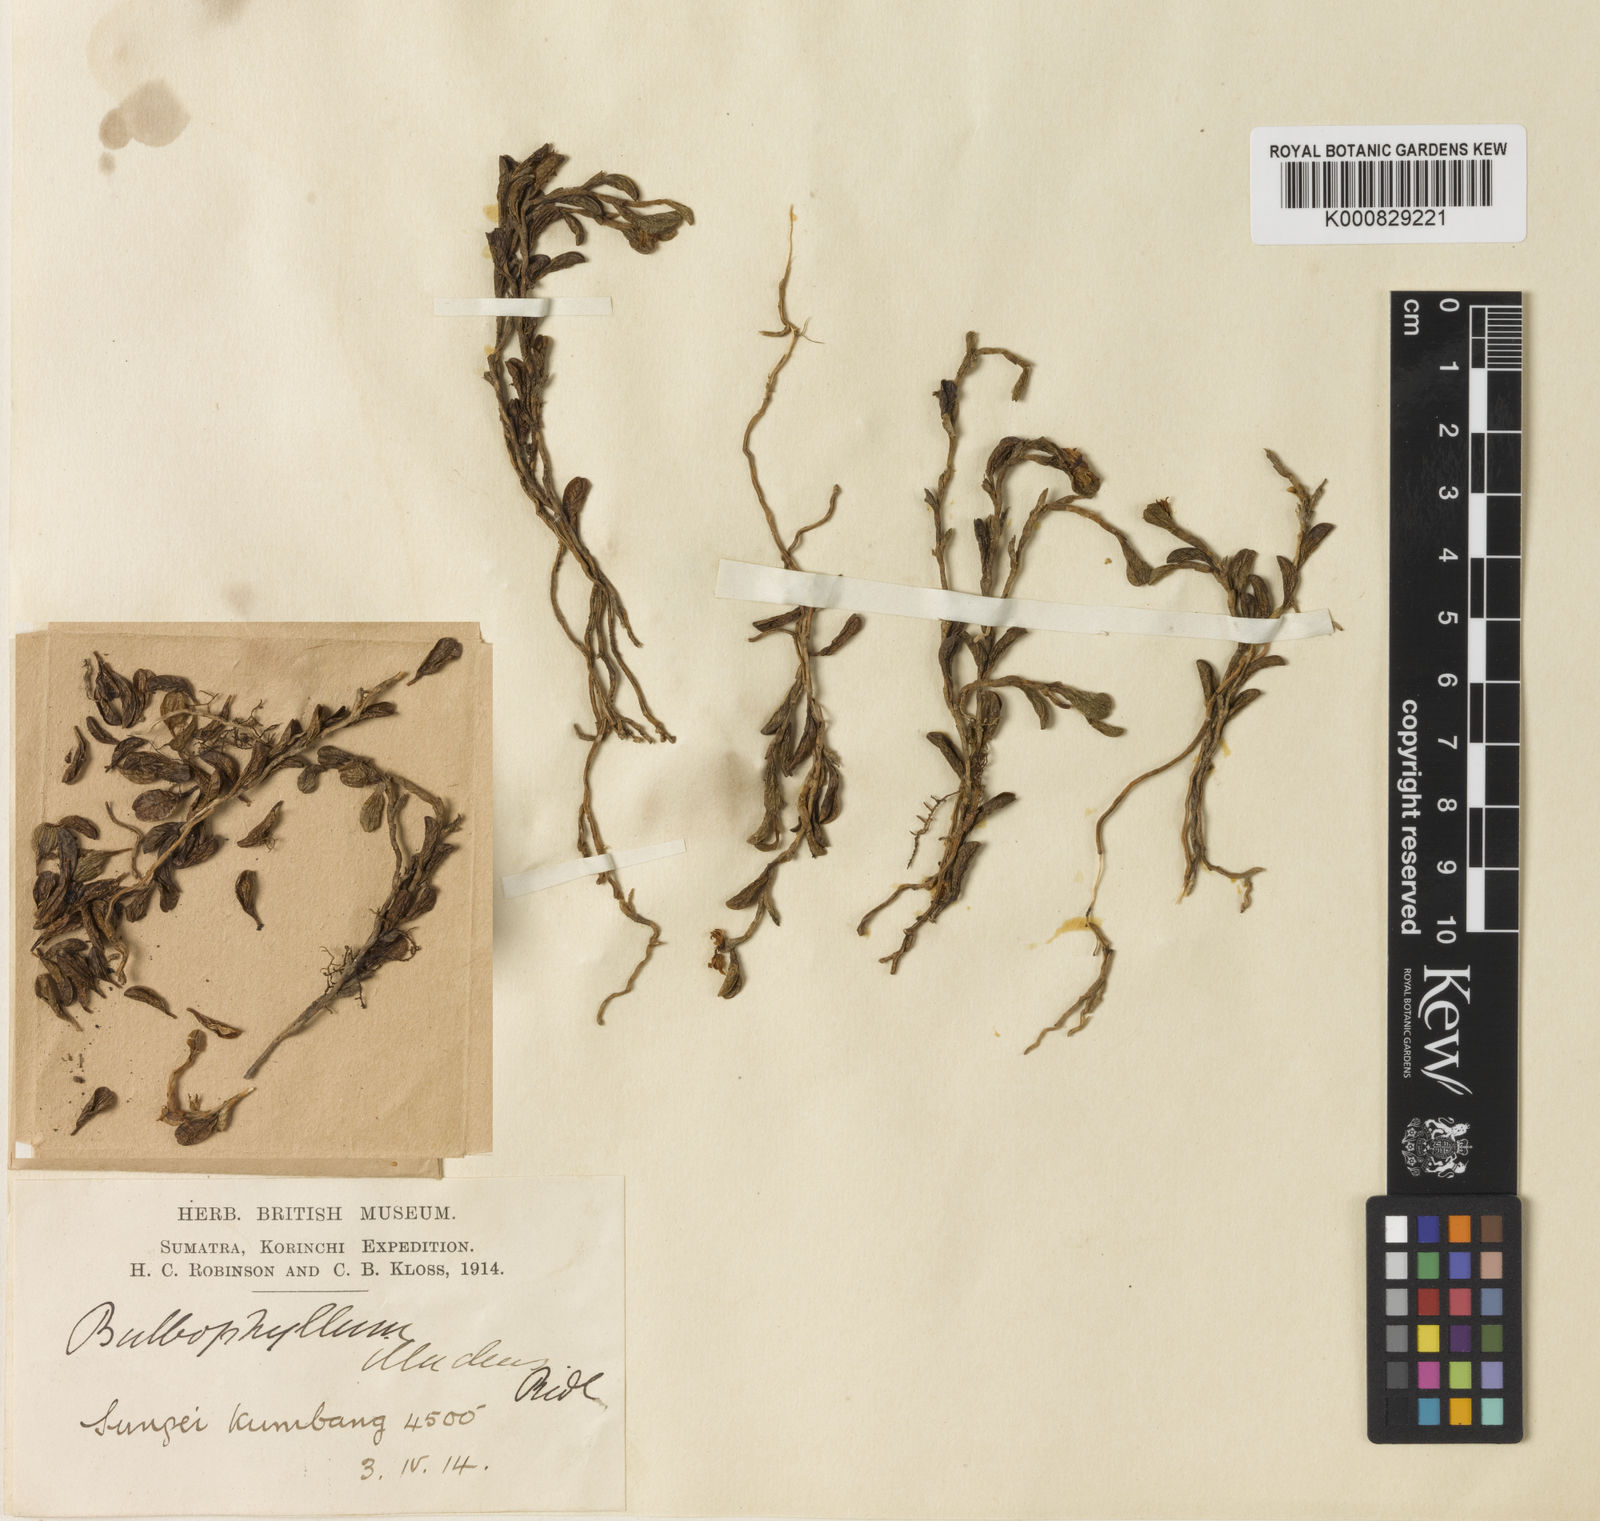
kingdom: Plantae
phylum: Tracheophyta
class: Liliopsida
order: Asparagales
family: Orchidaceae
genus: Bulbophyllum
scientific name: Bulbophyllum mutabile
